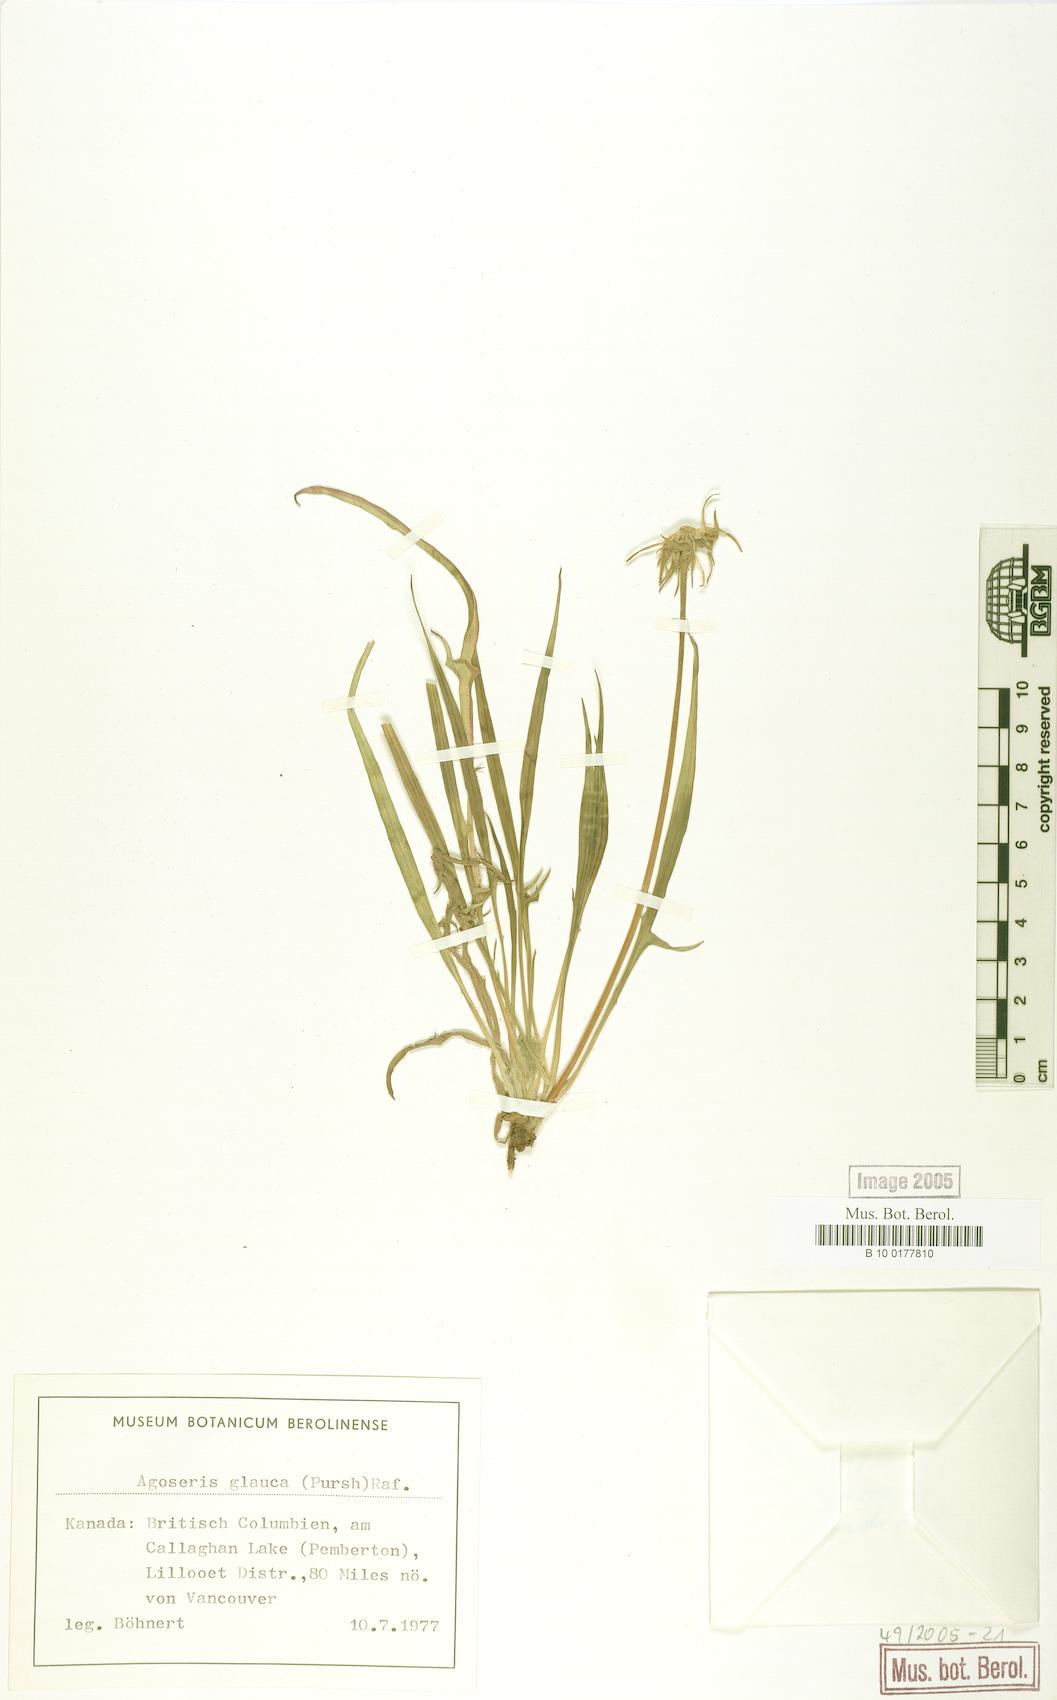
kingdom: Plantae
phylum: Tracheophyta
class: Magnoliopsida
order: Asterales
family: Asteraceae
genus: Agoseris
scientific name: Agoseris glauca
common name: Prairie agoseris
